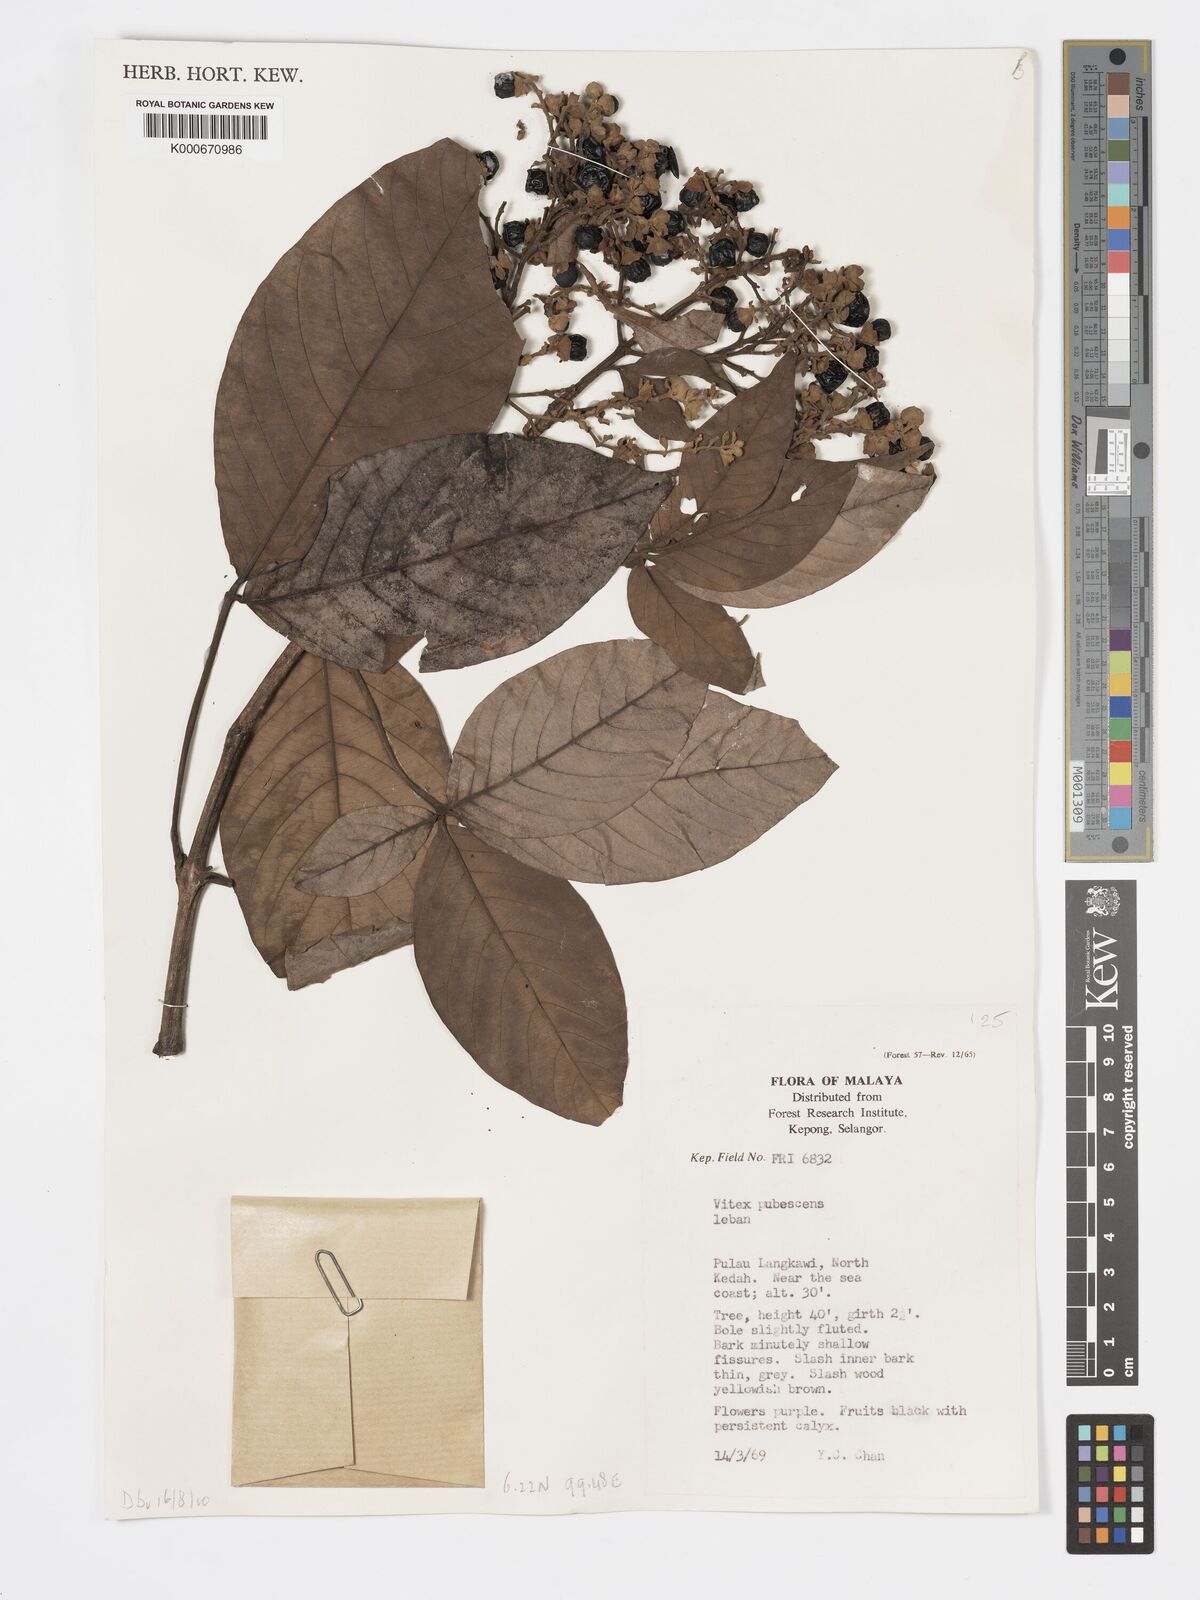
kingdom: Plantae
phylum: Tracheophyta
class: Magnoliopsida
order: Lamiales
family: Lamiaceae
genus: Vitex
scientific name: Vitex pinnata
